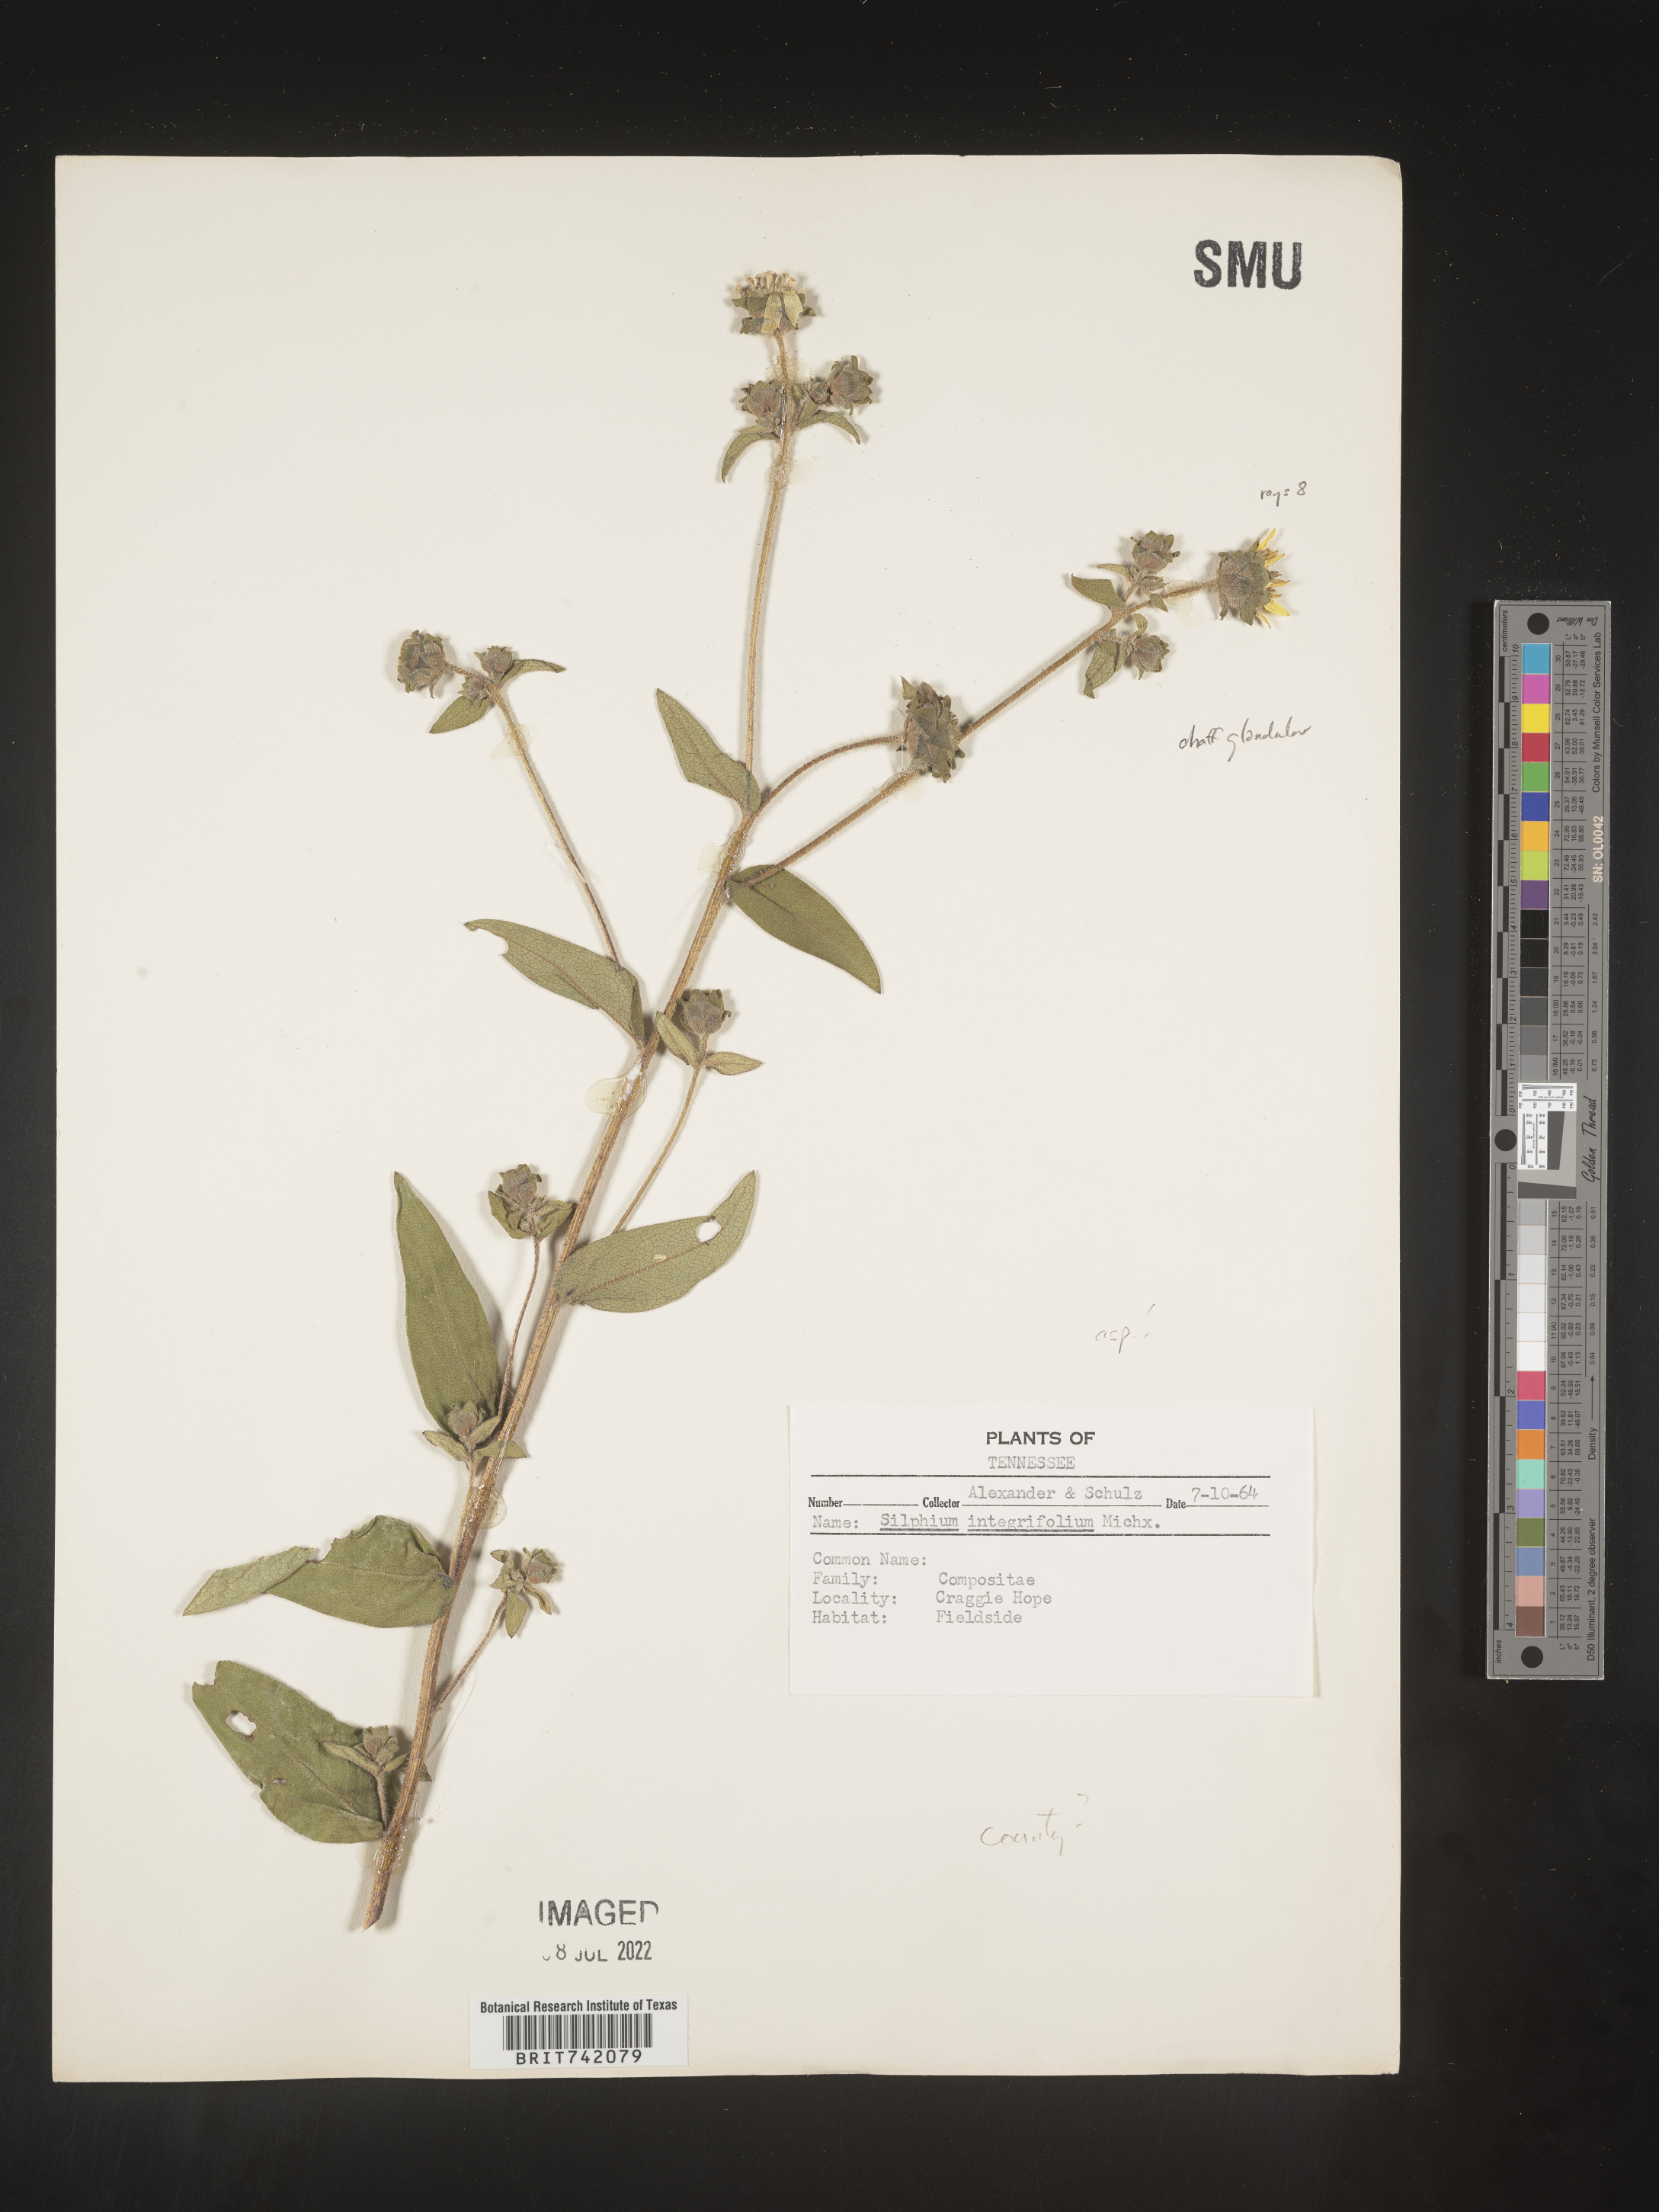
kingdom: Plantae
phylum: Tracheophyta
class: Magnoliopsida
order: Asterales
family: Asteraceae
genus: Silphium
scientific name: Silphium asperrimum
